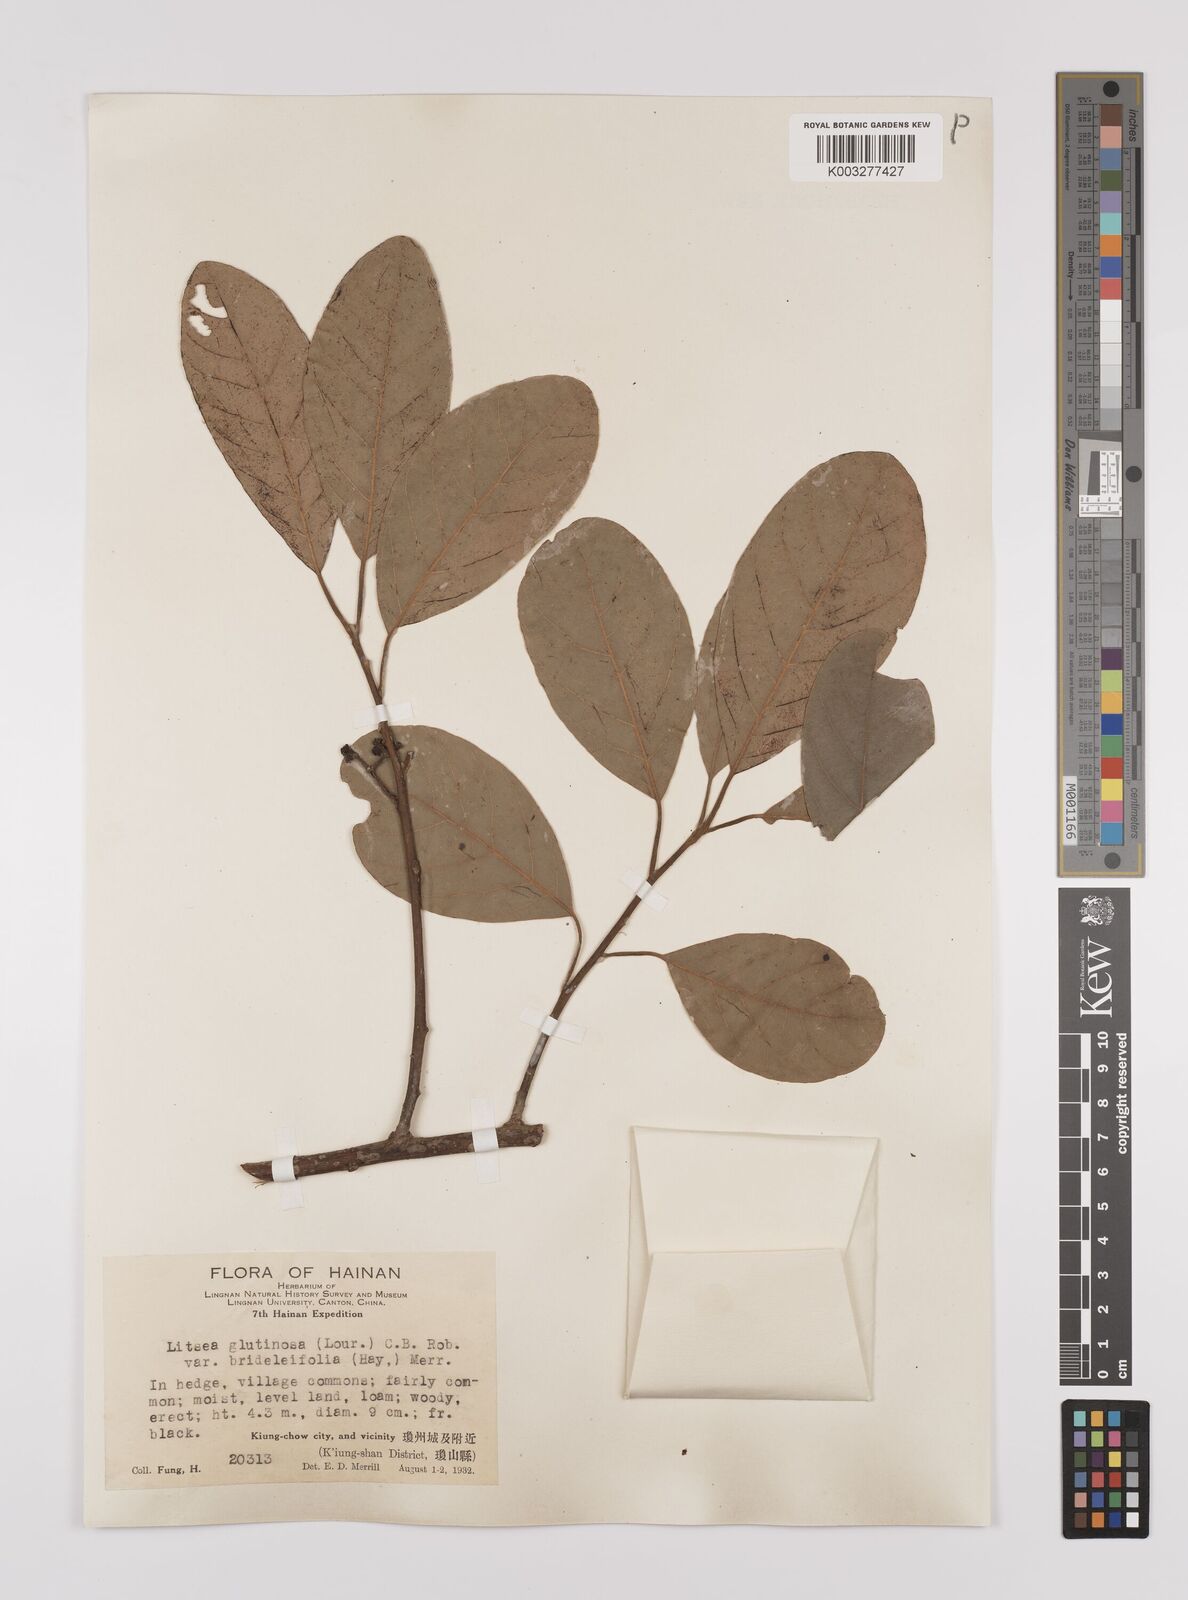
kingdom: Plantae
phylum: Tracheophyta
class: Magnoliopsida
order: Laurales
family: Lauraceae
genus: Litsea
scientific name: Litsea glutinosa
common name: Indian-laurel
